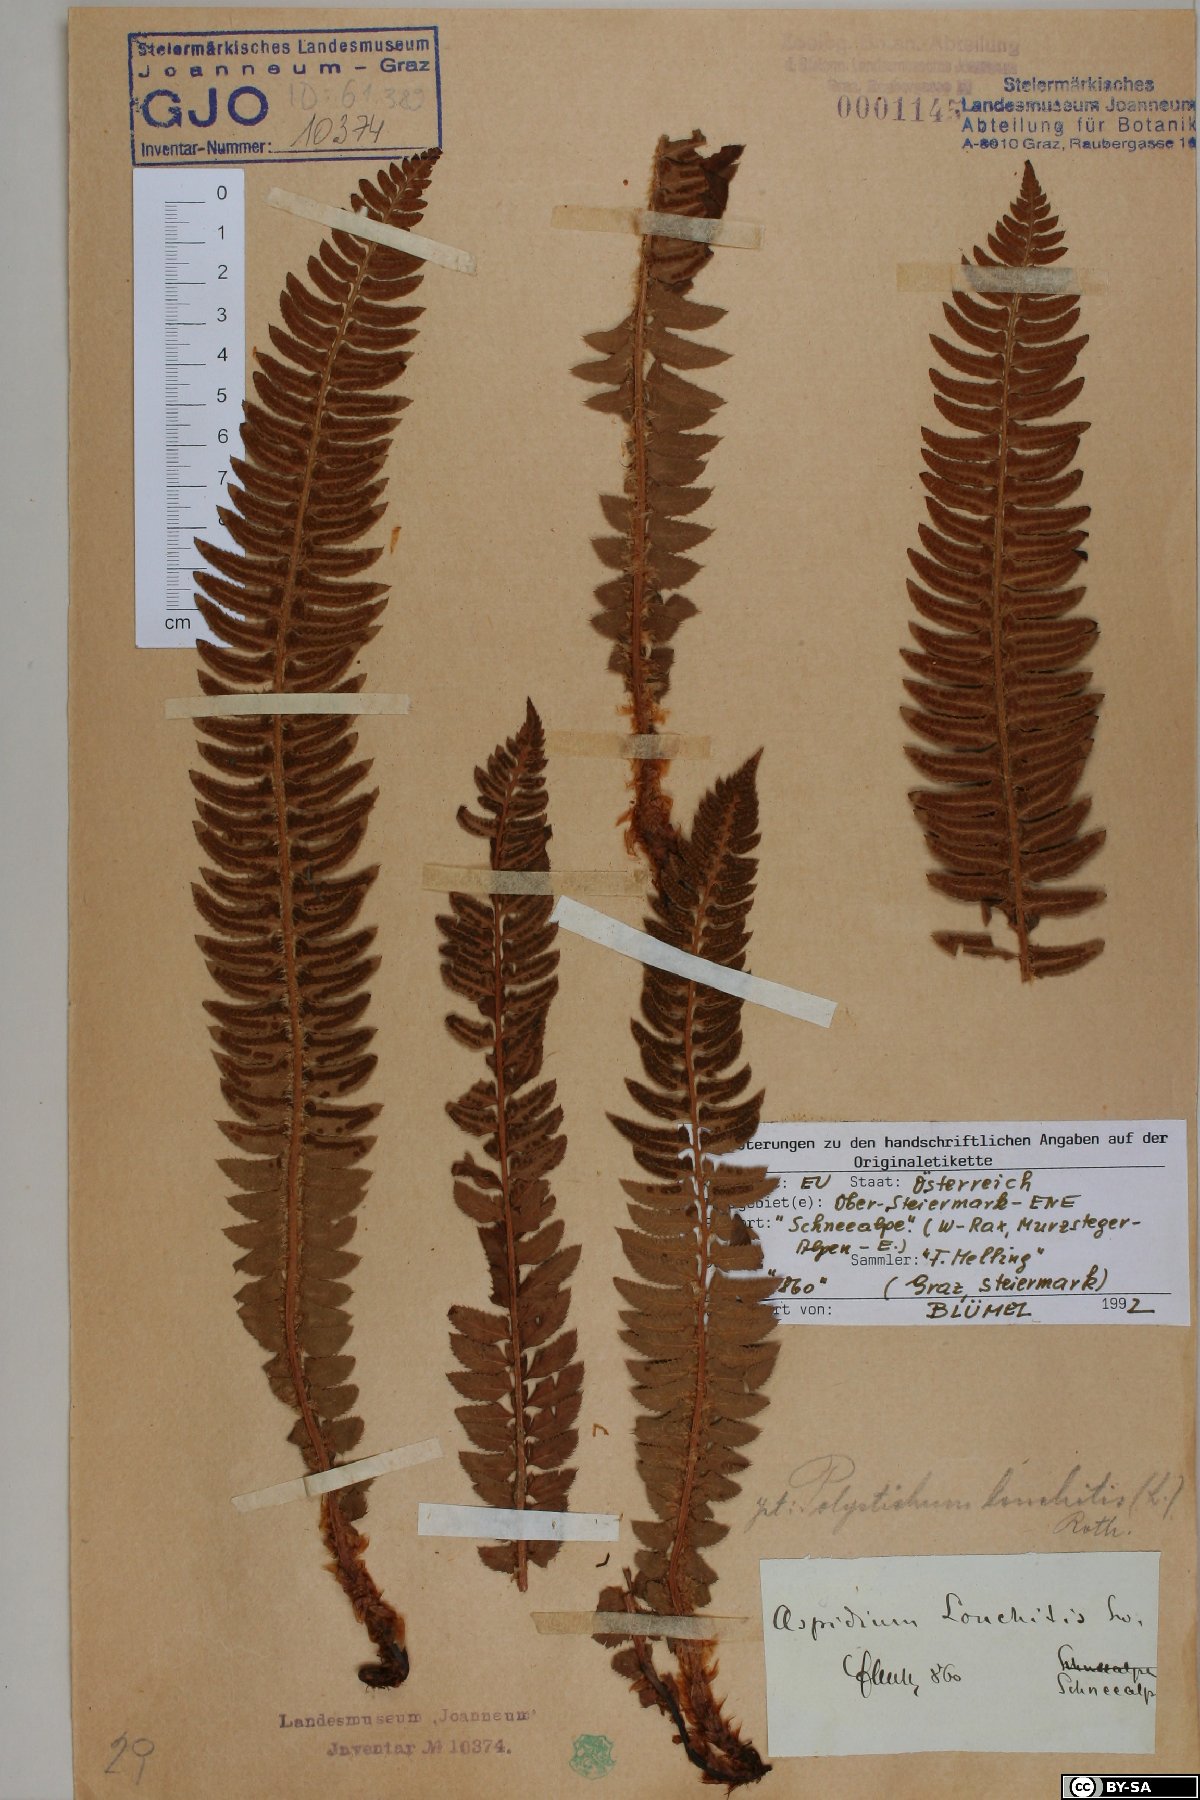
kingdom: Plantae
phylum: Tracheophyta
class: Polypodiopsida
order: Polypodiales
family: Dryopteridaceae
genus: Polystichum
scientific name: Polystichum lonchitis
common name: Holly fern
